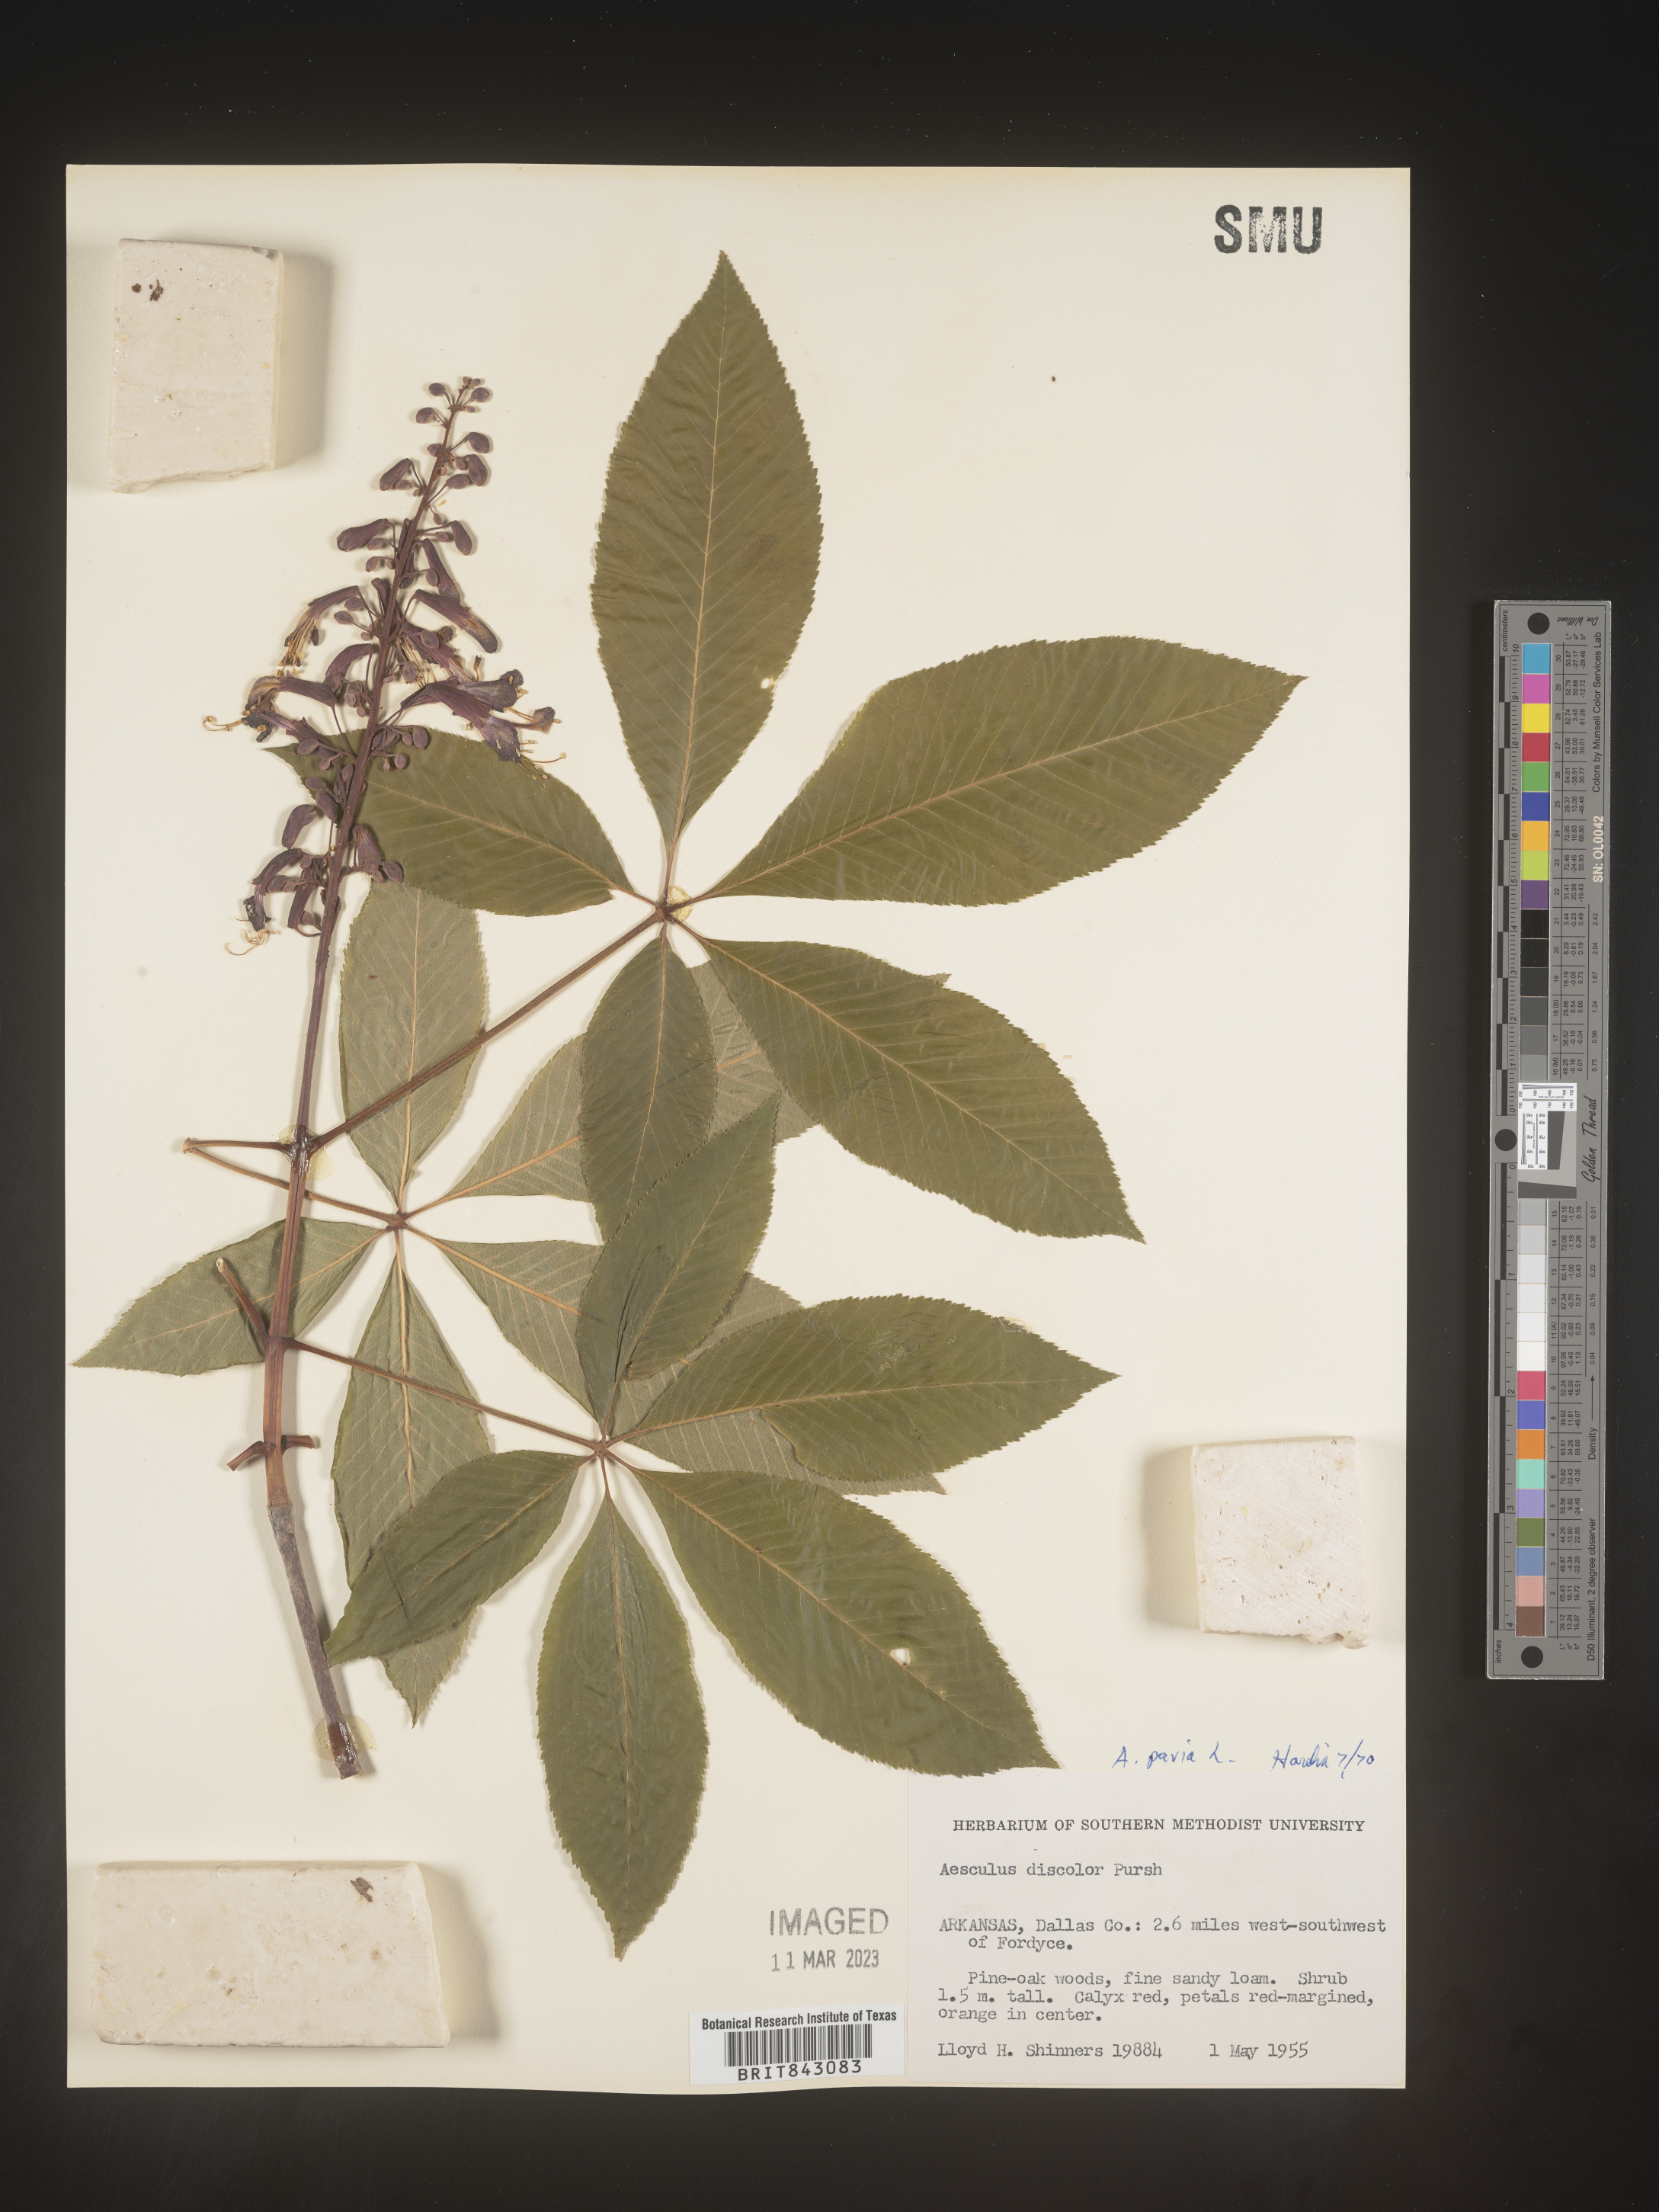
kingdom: Plantae
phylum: Tracheophyta
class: Magnoliopsida
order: Sapindales
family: Sapindaceae
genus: Aesculus
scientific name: Aesculus pavia
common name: Red buckeye
